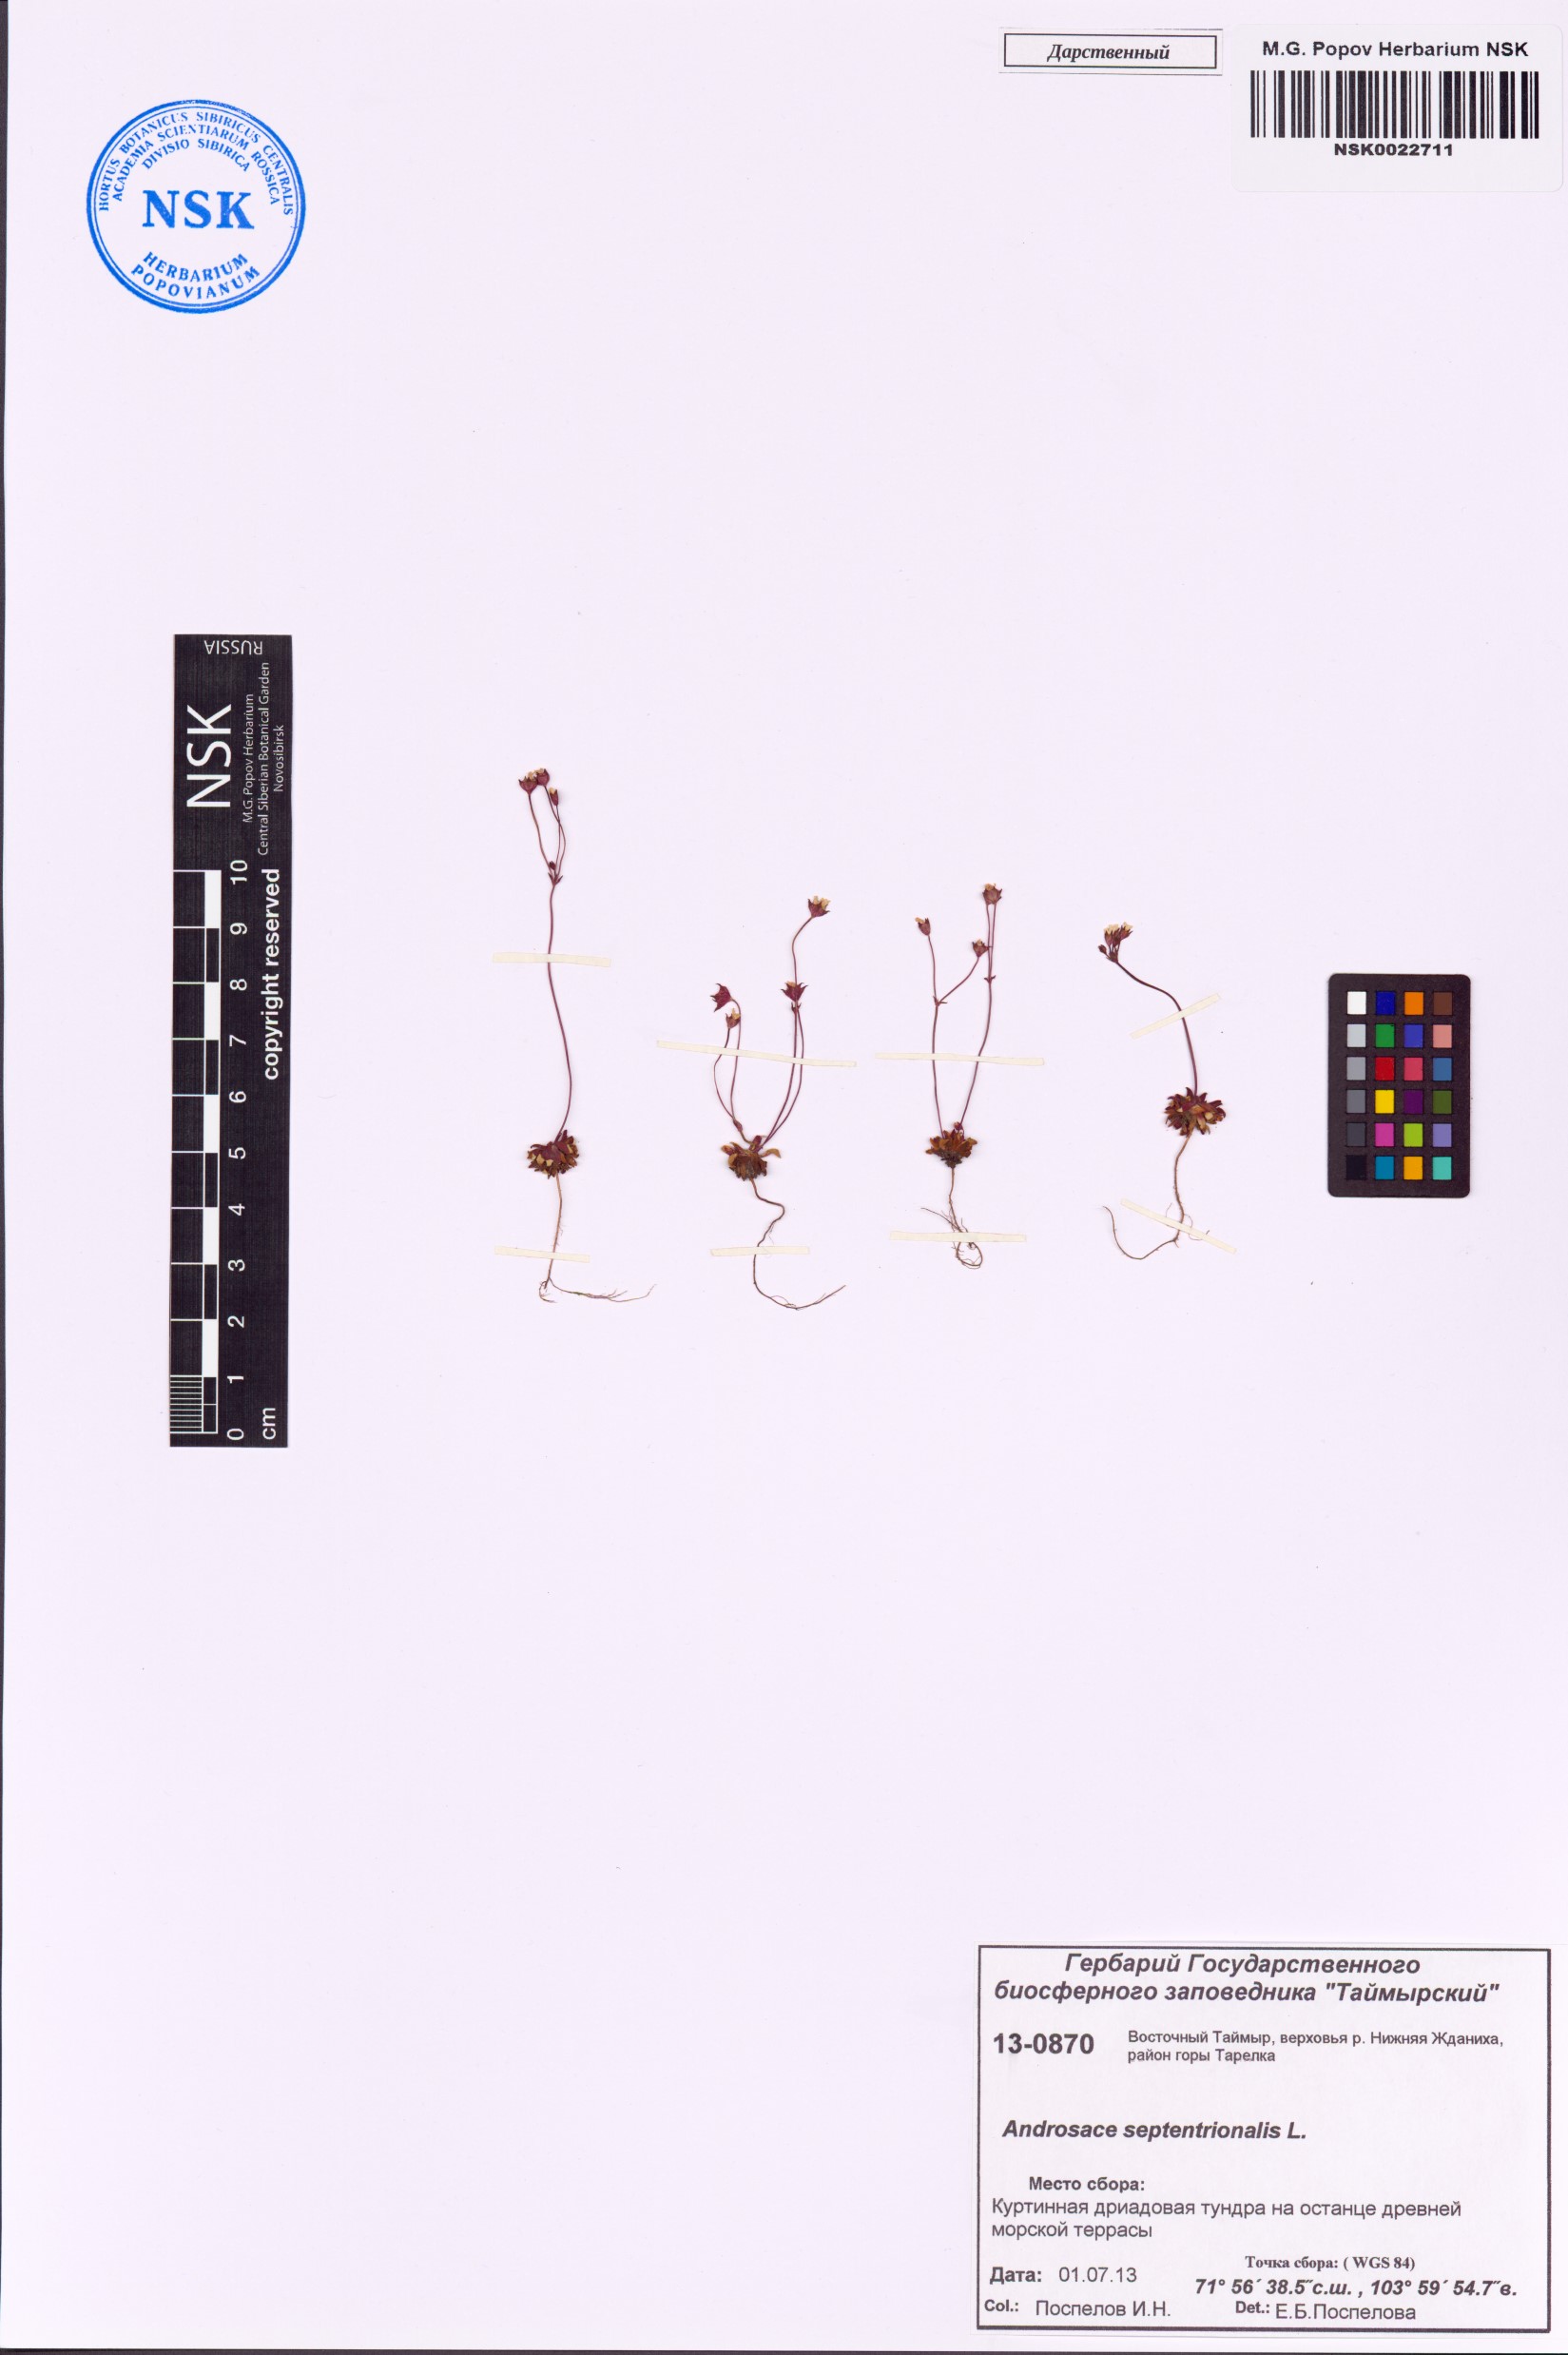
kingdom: Plantae
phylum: Tracheophyta
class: Magnoliopsida
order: Ericales
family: Primulaceae
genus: Androsace
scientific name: Androsace septentrionalis
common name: Hairy northern fairy-candelabra
